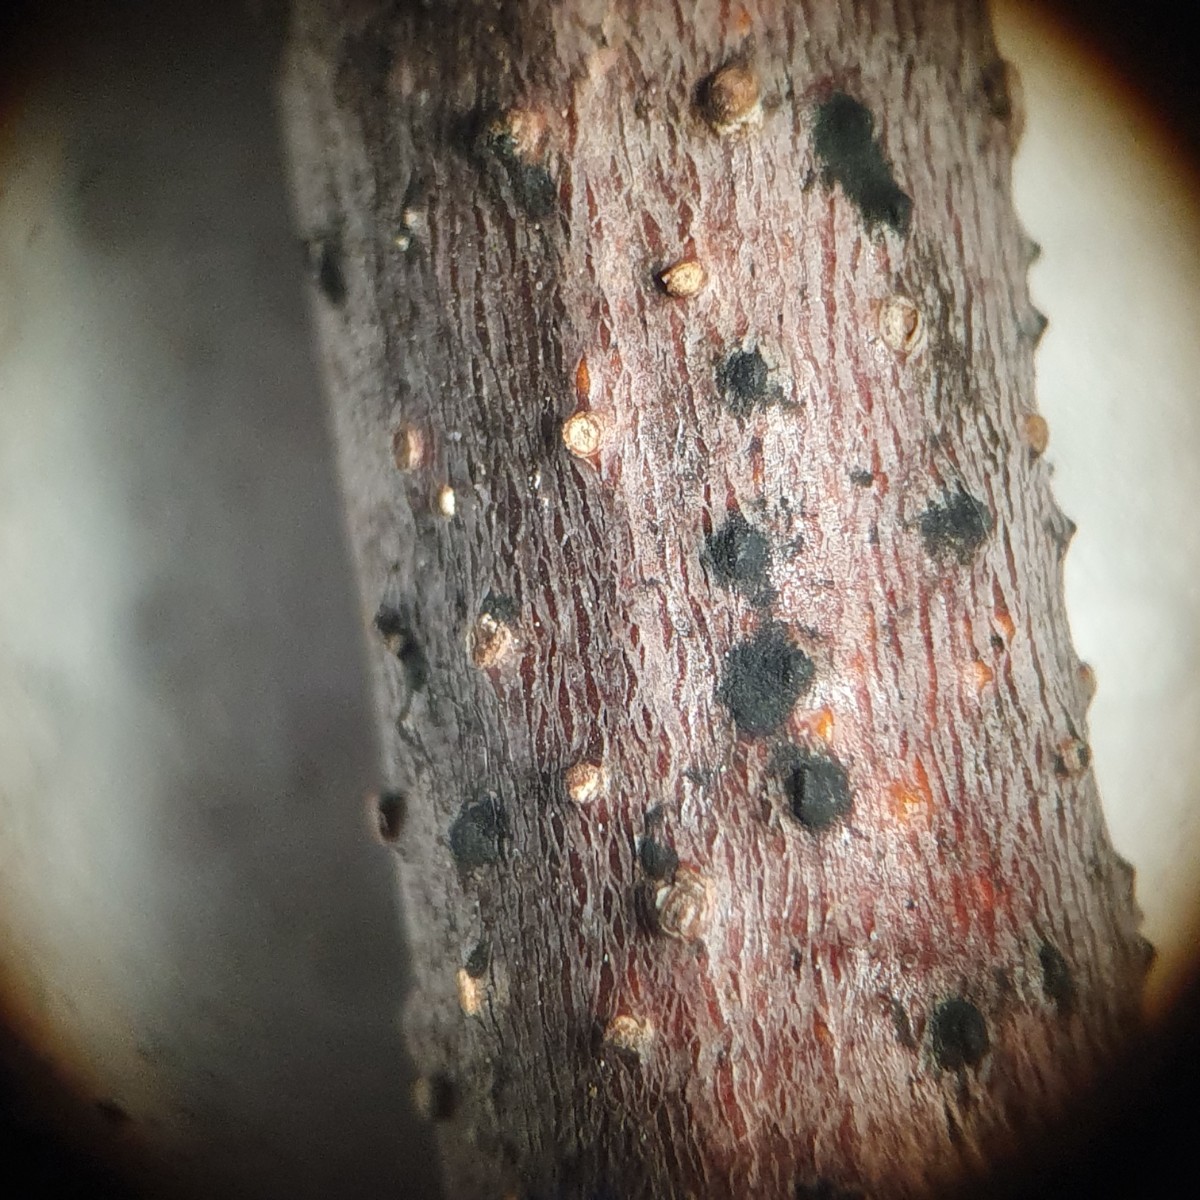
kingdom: Fungi
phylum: Ascomycota
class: Sordariomycetes
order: Diaporthales
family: Melanconidaceae
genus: Melanconis
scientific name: Melanconis alni
